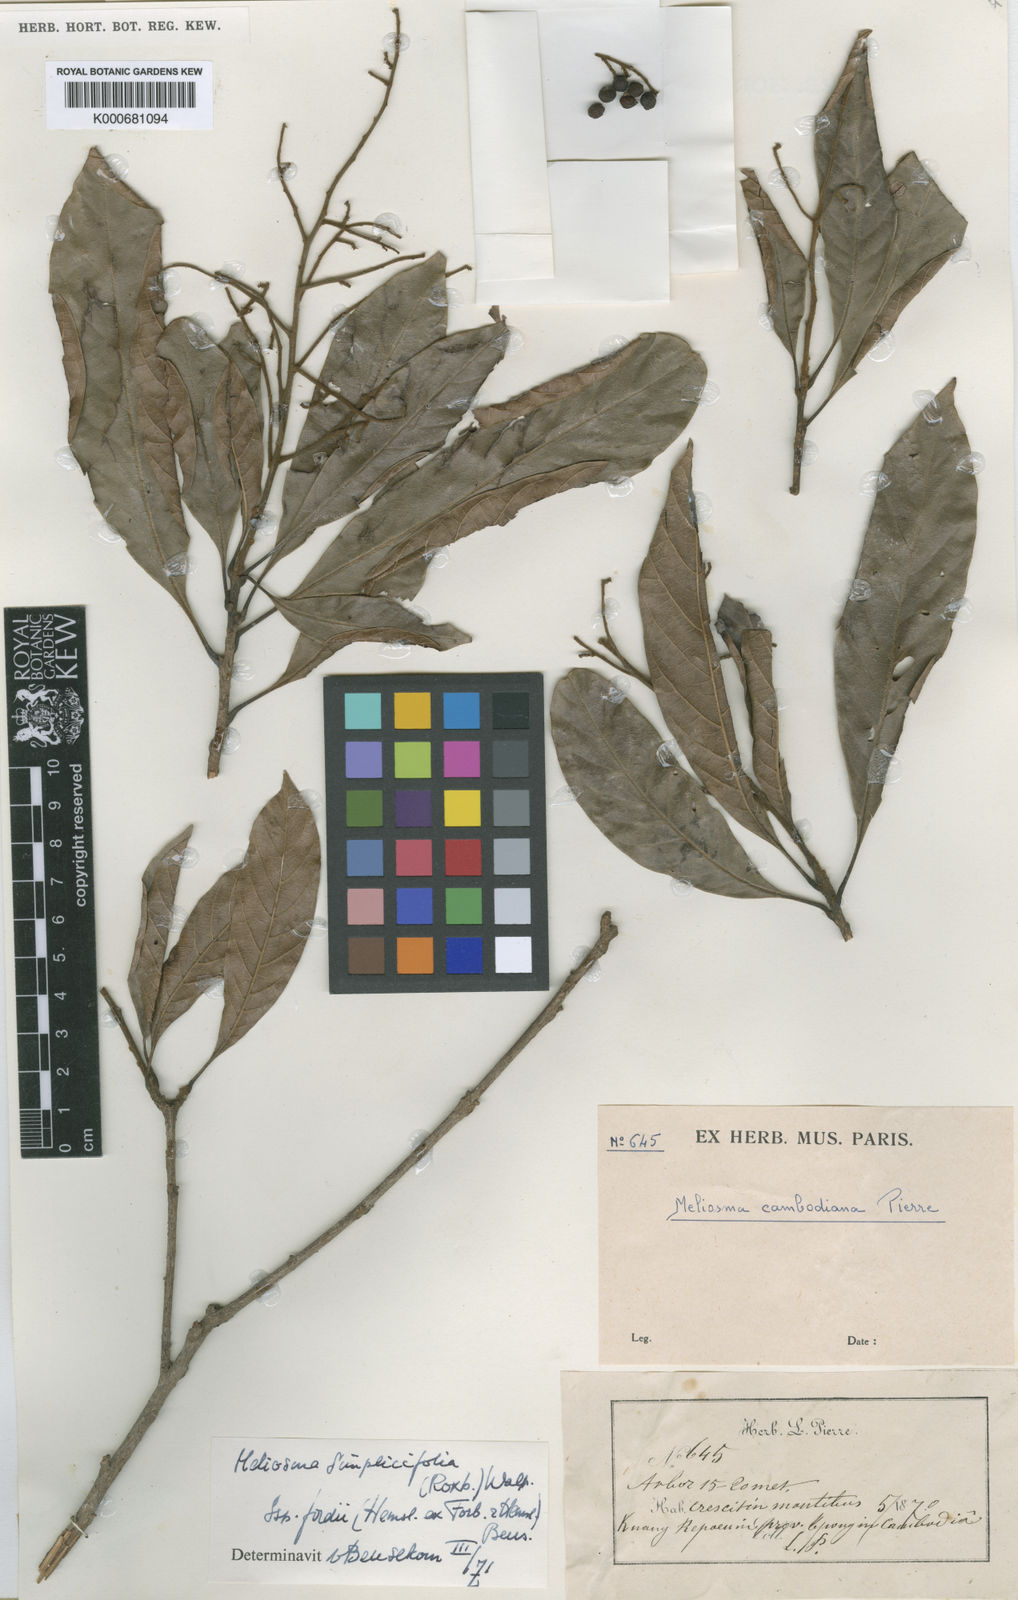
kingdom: Plantae
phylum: Tracheophyta
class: Magnoliopsida
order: Proteales
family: Sabiaceae
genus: Meliosma
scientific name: Meliosma fordii
